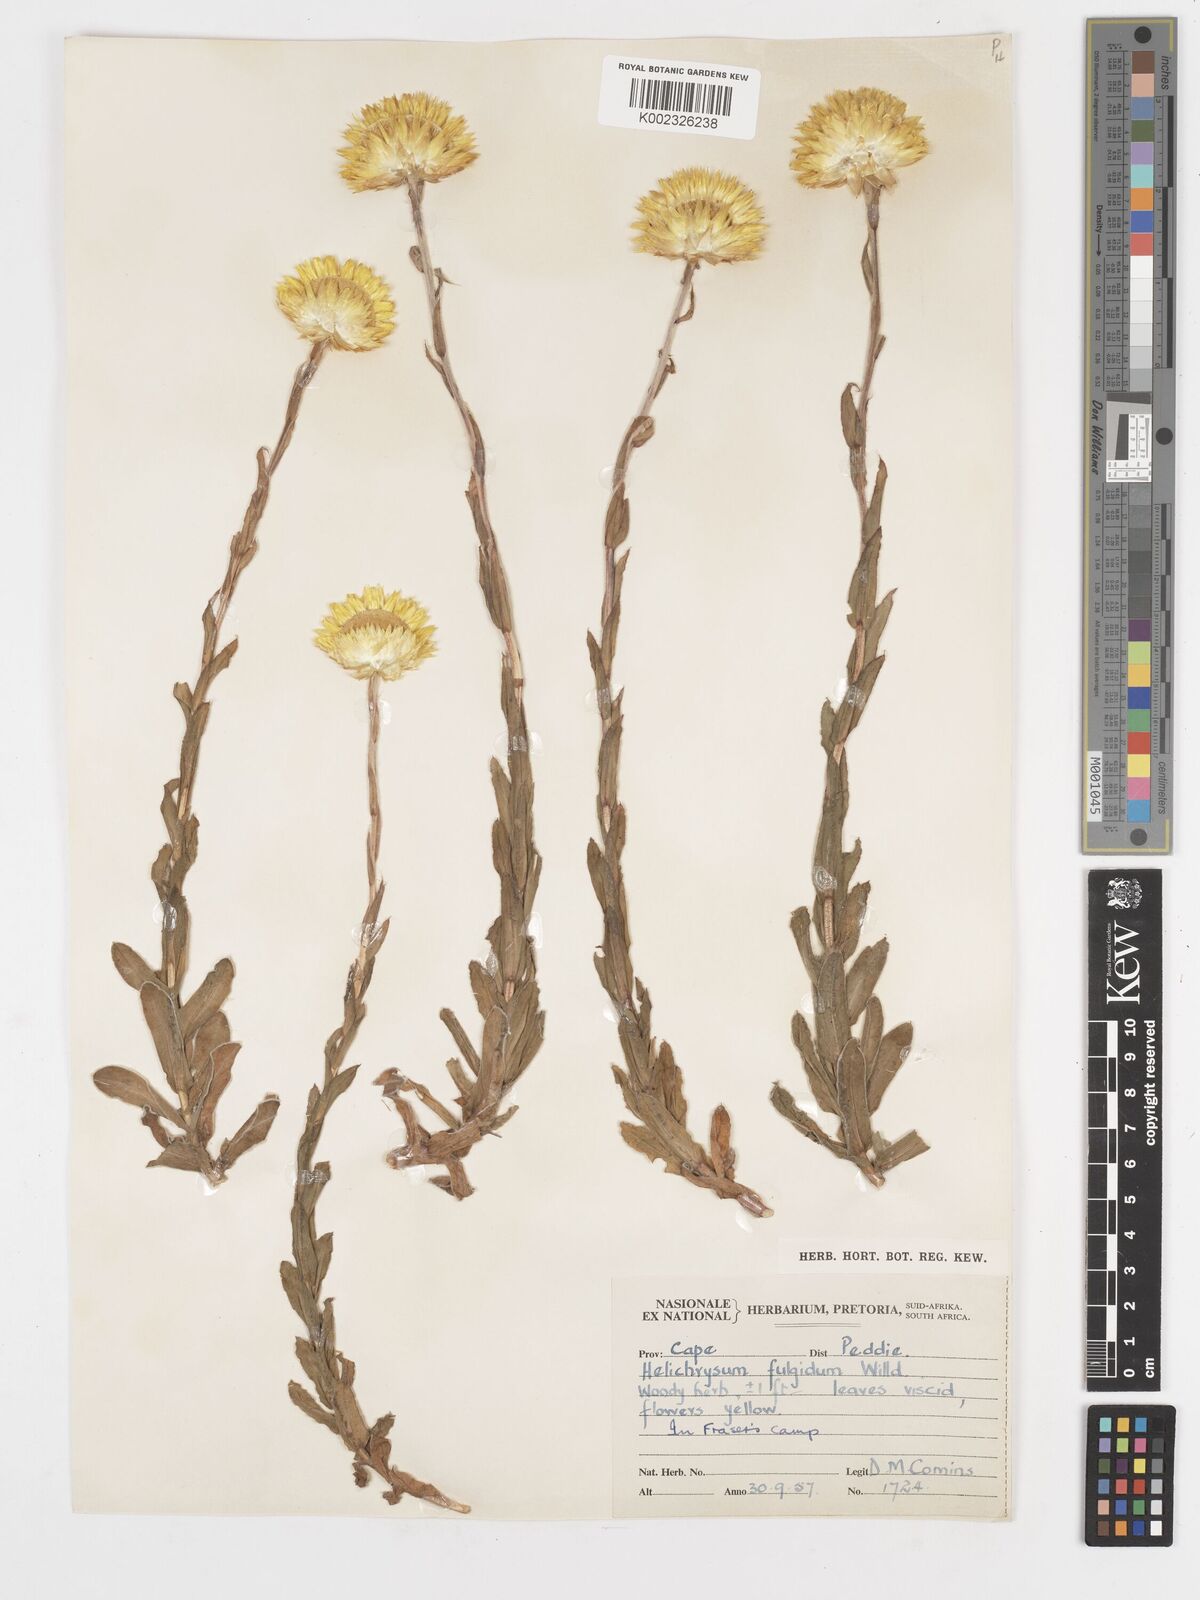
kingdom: Plantae
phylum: Tracheophyta
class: Magnoliopsida
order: Asterales
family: Asteraceae
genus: Helichrysum
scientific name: Helichrysum aureum
